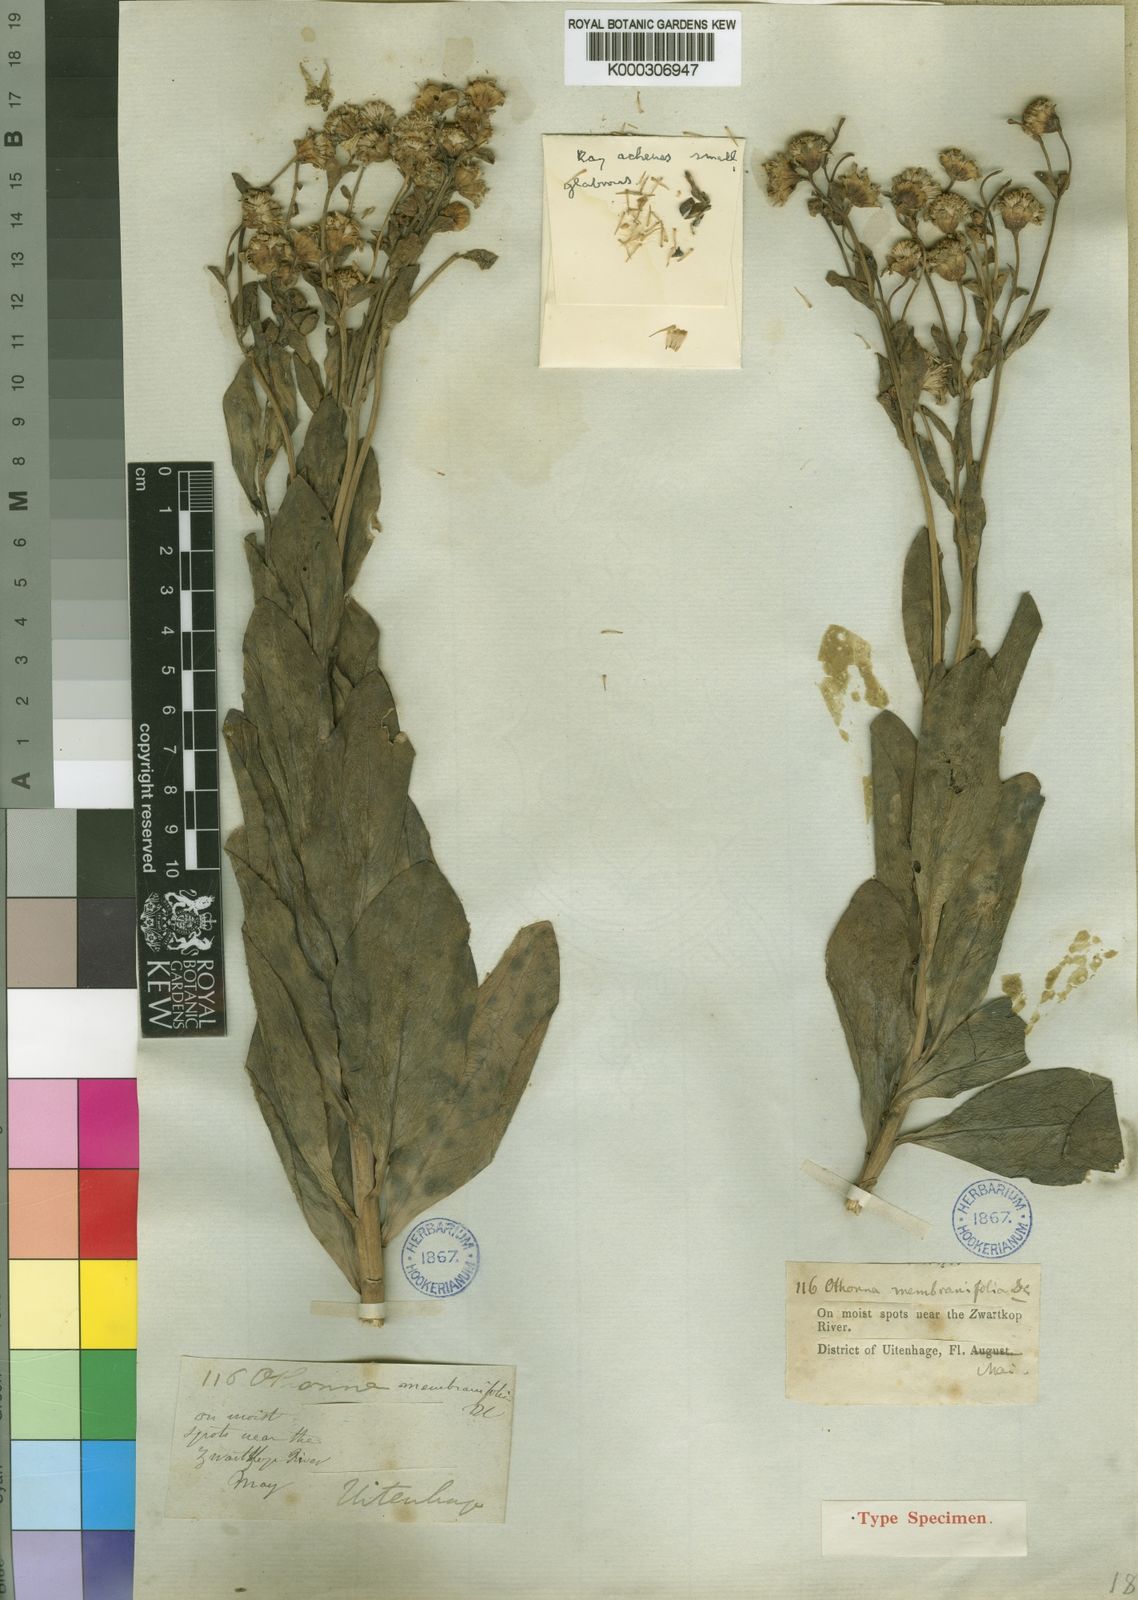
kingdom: Plantae
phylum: Tracheophyta
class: Magnoliopsida
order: Asterales
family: Asteraceae
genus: Othonna
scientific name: Othonna membranifolia
